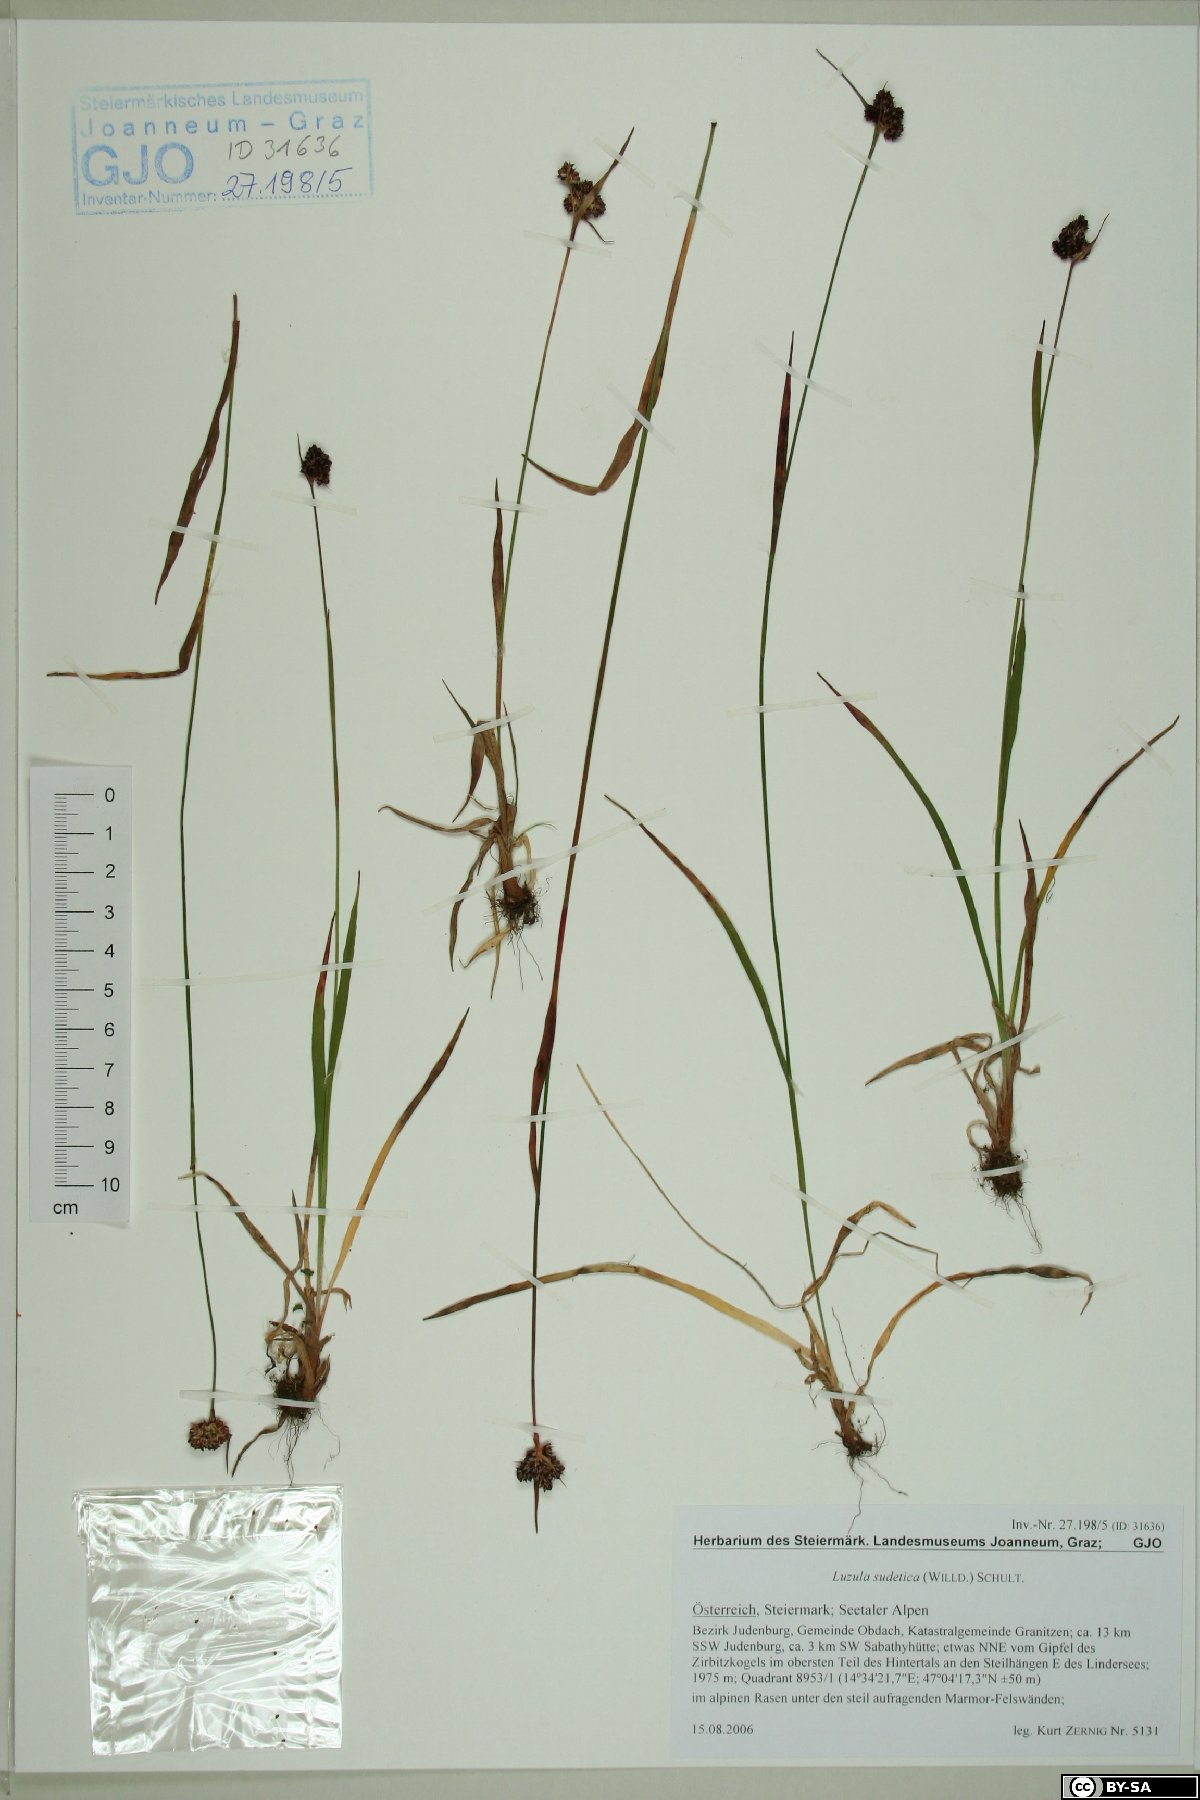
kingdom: Plantae
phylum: Tracheophyta
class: Liliopsida
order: Poales
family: Juncaceae
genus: Luzula
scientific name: Luzula sudetica
